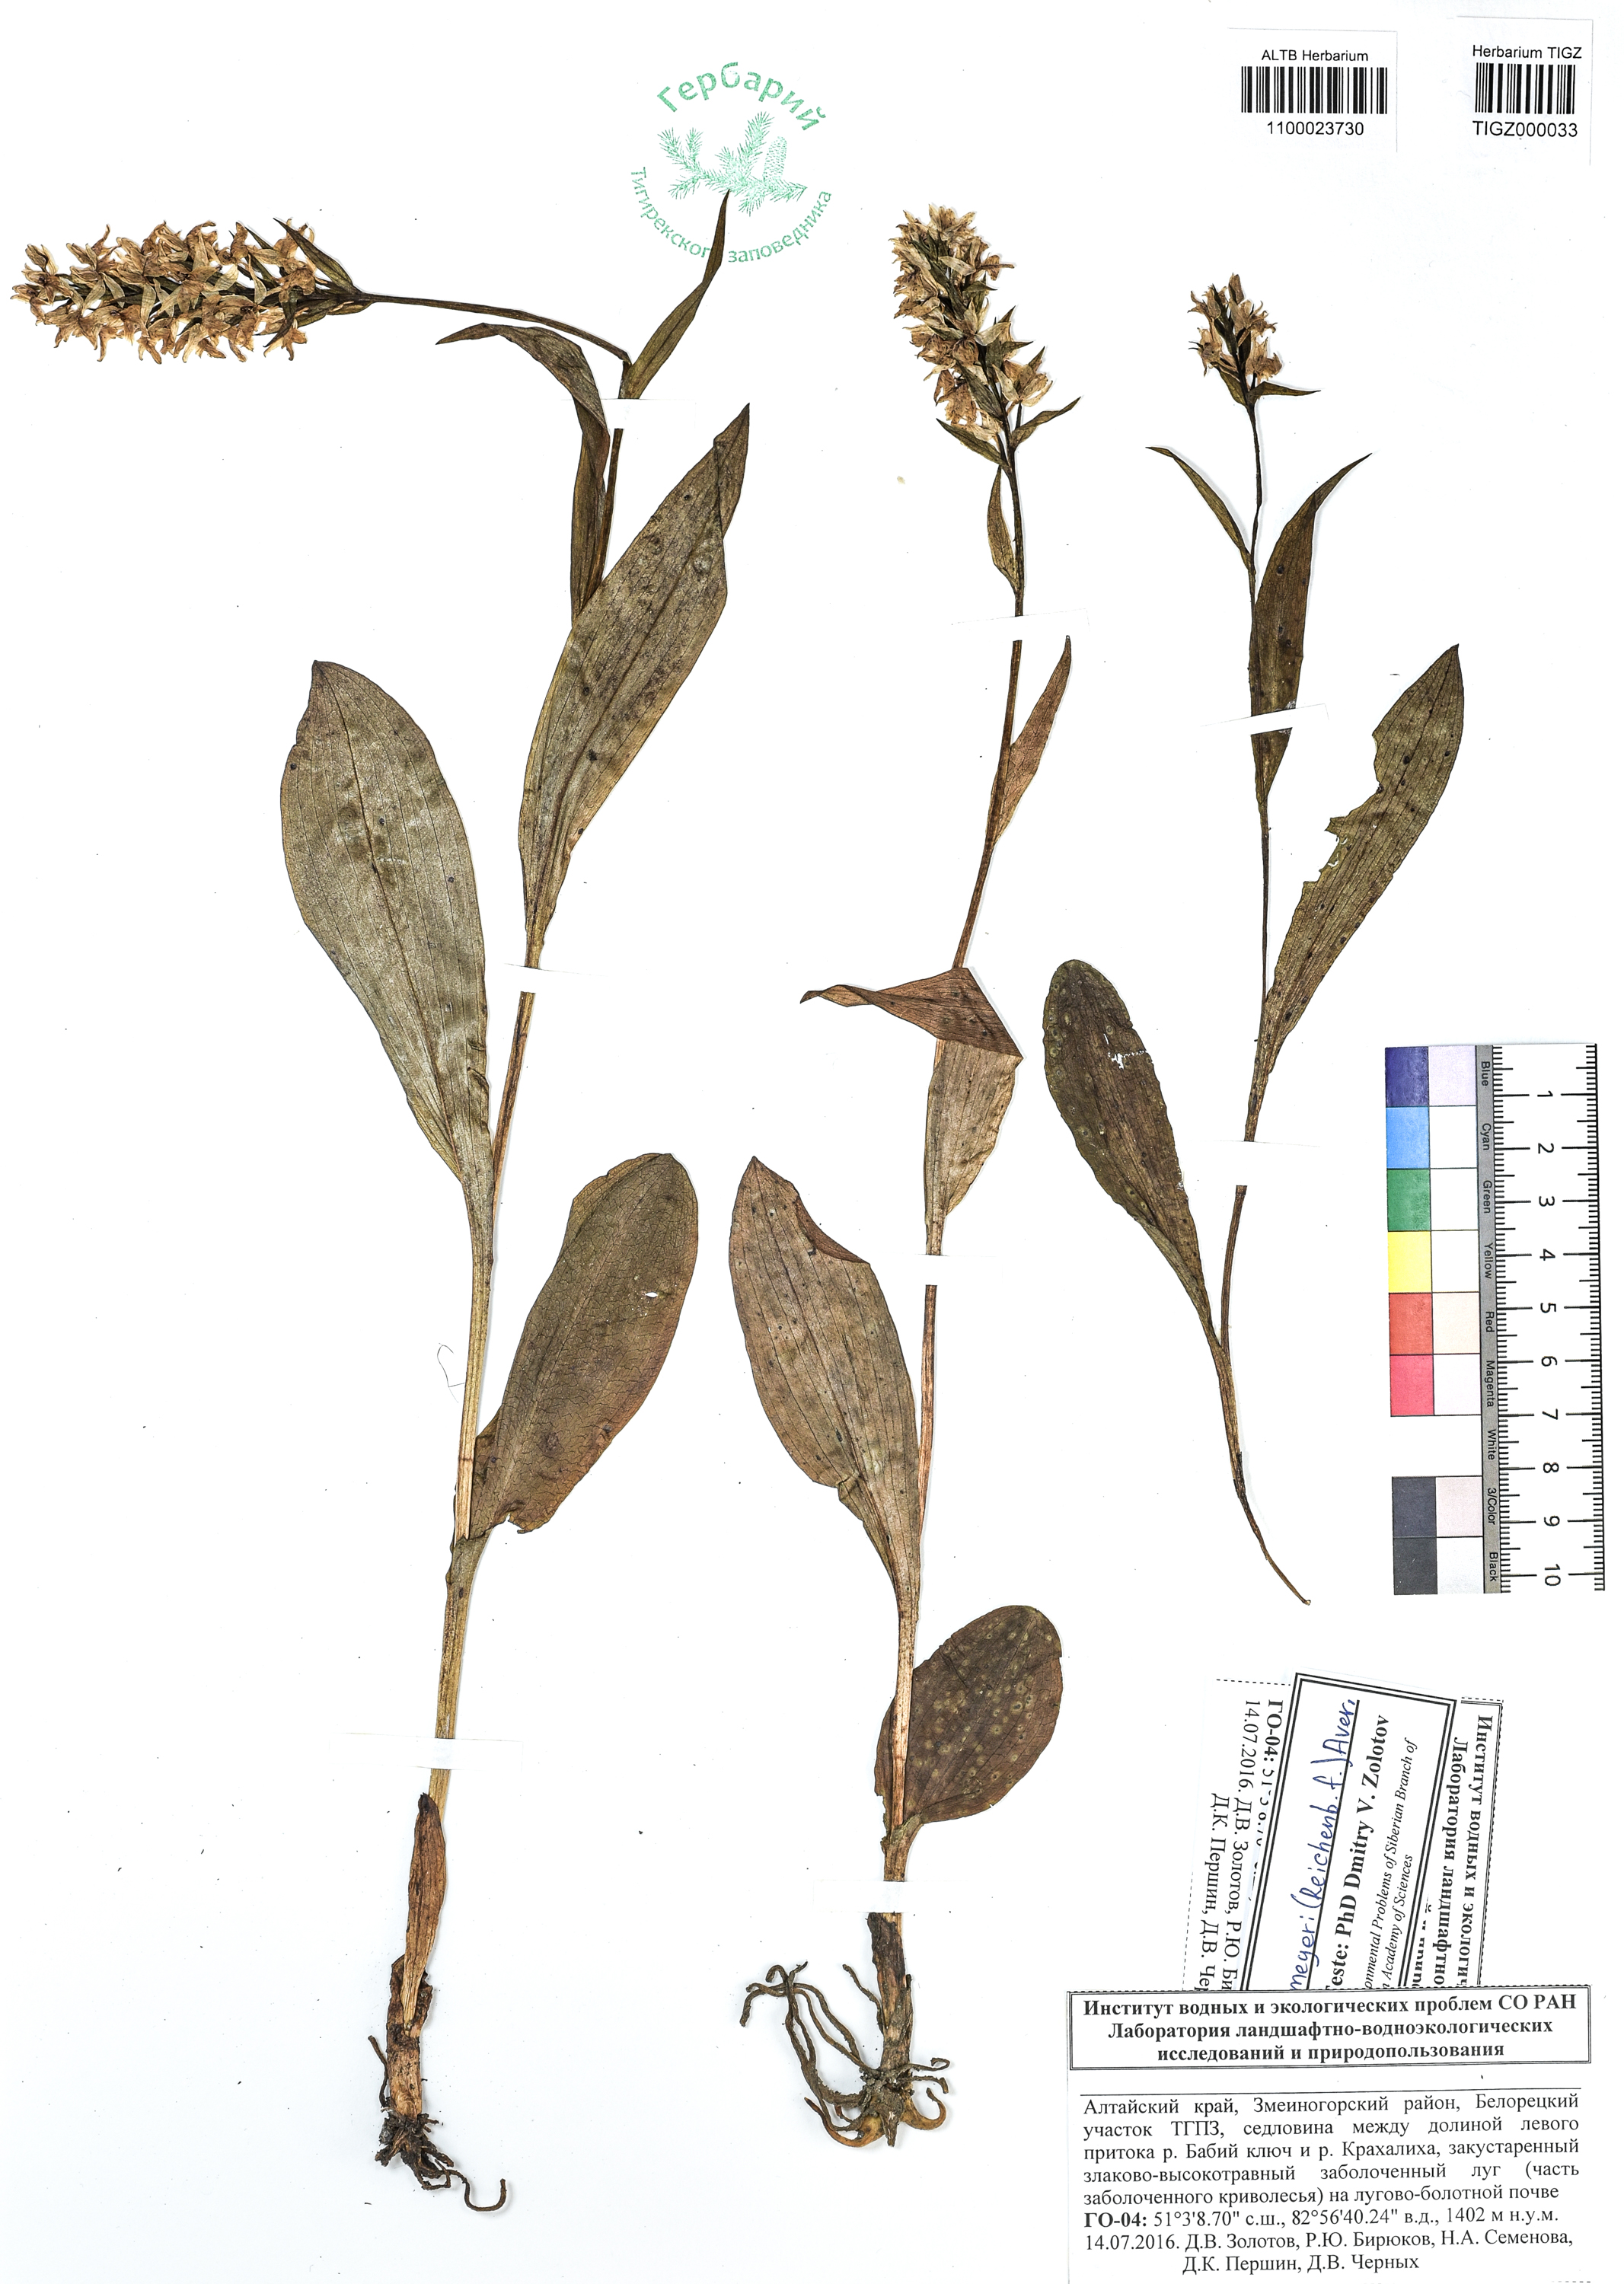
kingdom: Plantae
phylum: Tracheophyta
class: Liliopsida
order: Asparagales
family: Orchidaceae
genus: Dactylorhiza
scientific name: Dactylorhiza maculata
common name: Heath spotted-orchid
